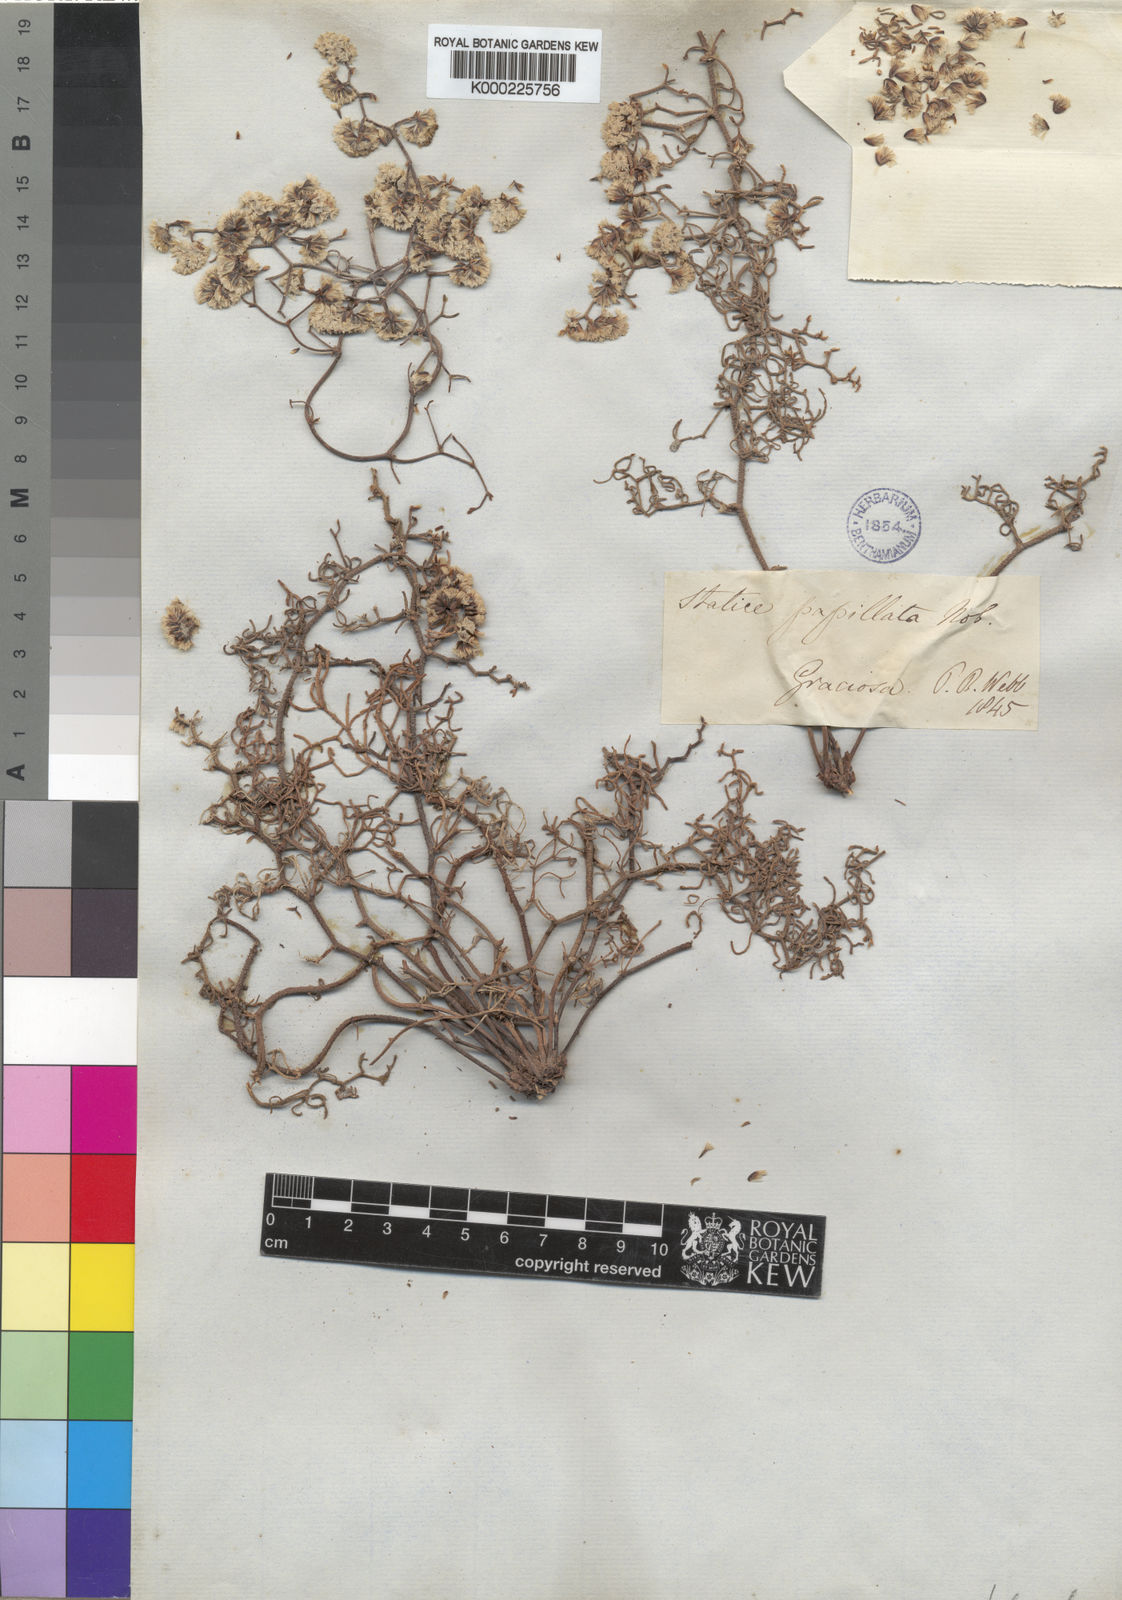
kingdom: Plantae
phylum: Tracheophyta
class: Magnoliopsida
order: Caryophyllales
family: Plumbaginaceae
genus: Limonium
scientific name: Limonium papillatum
